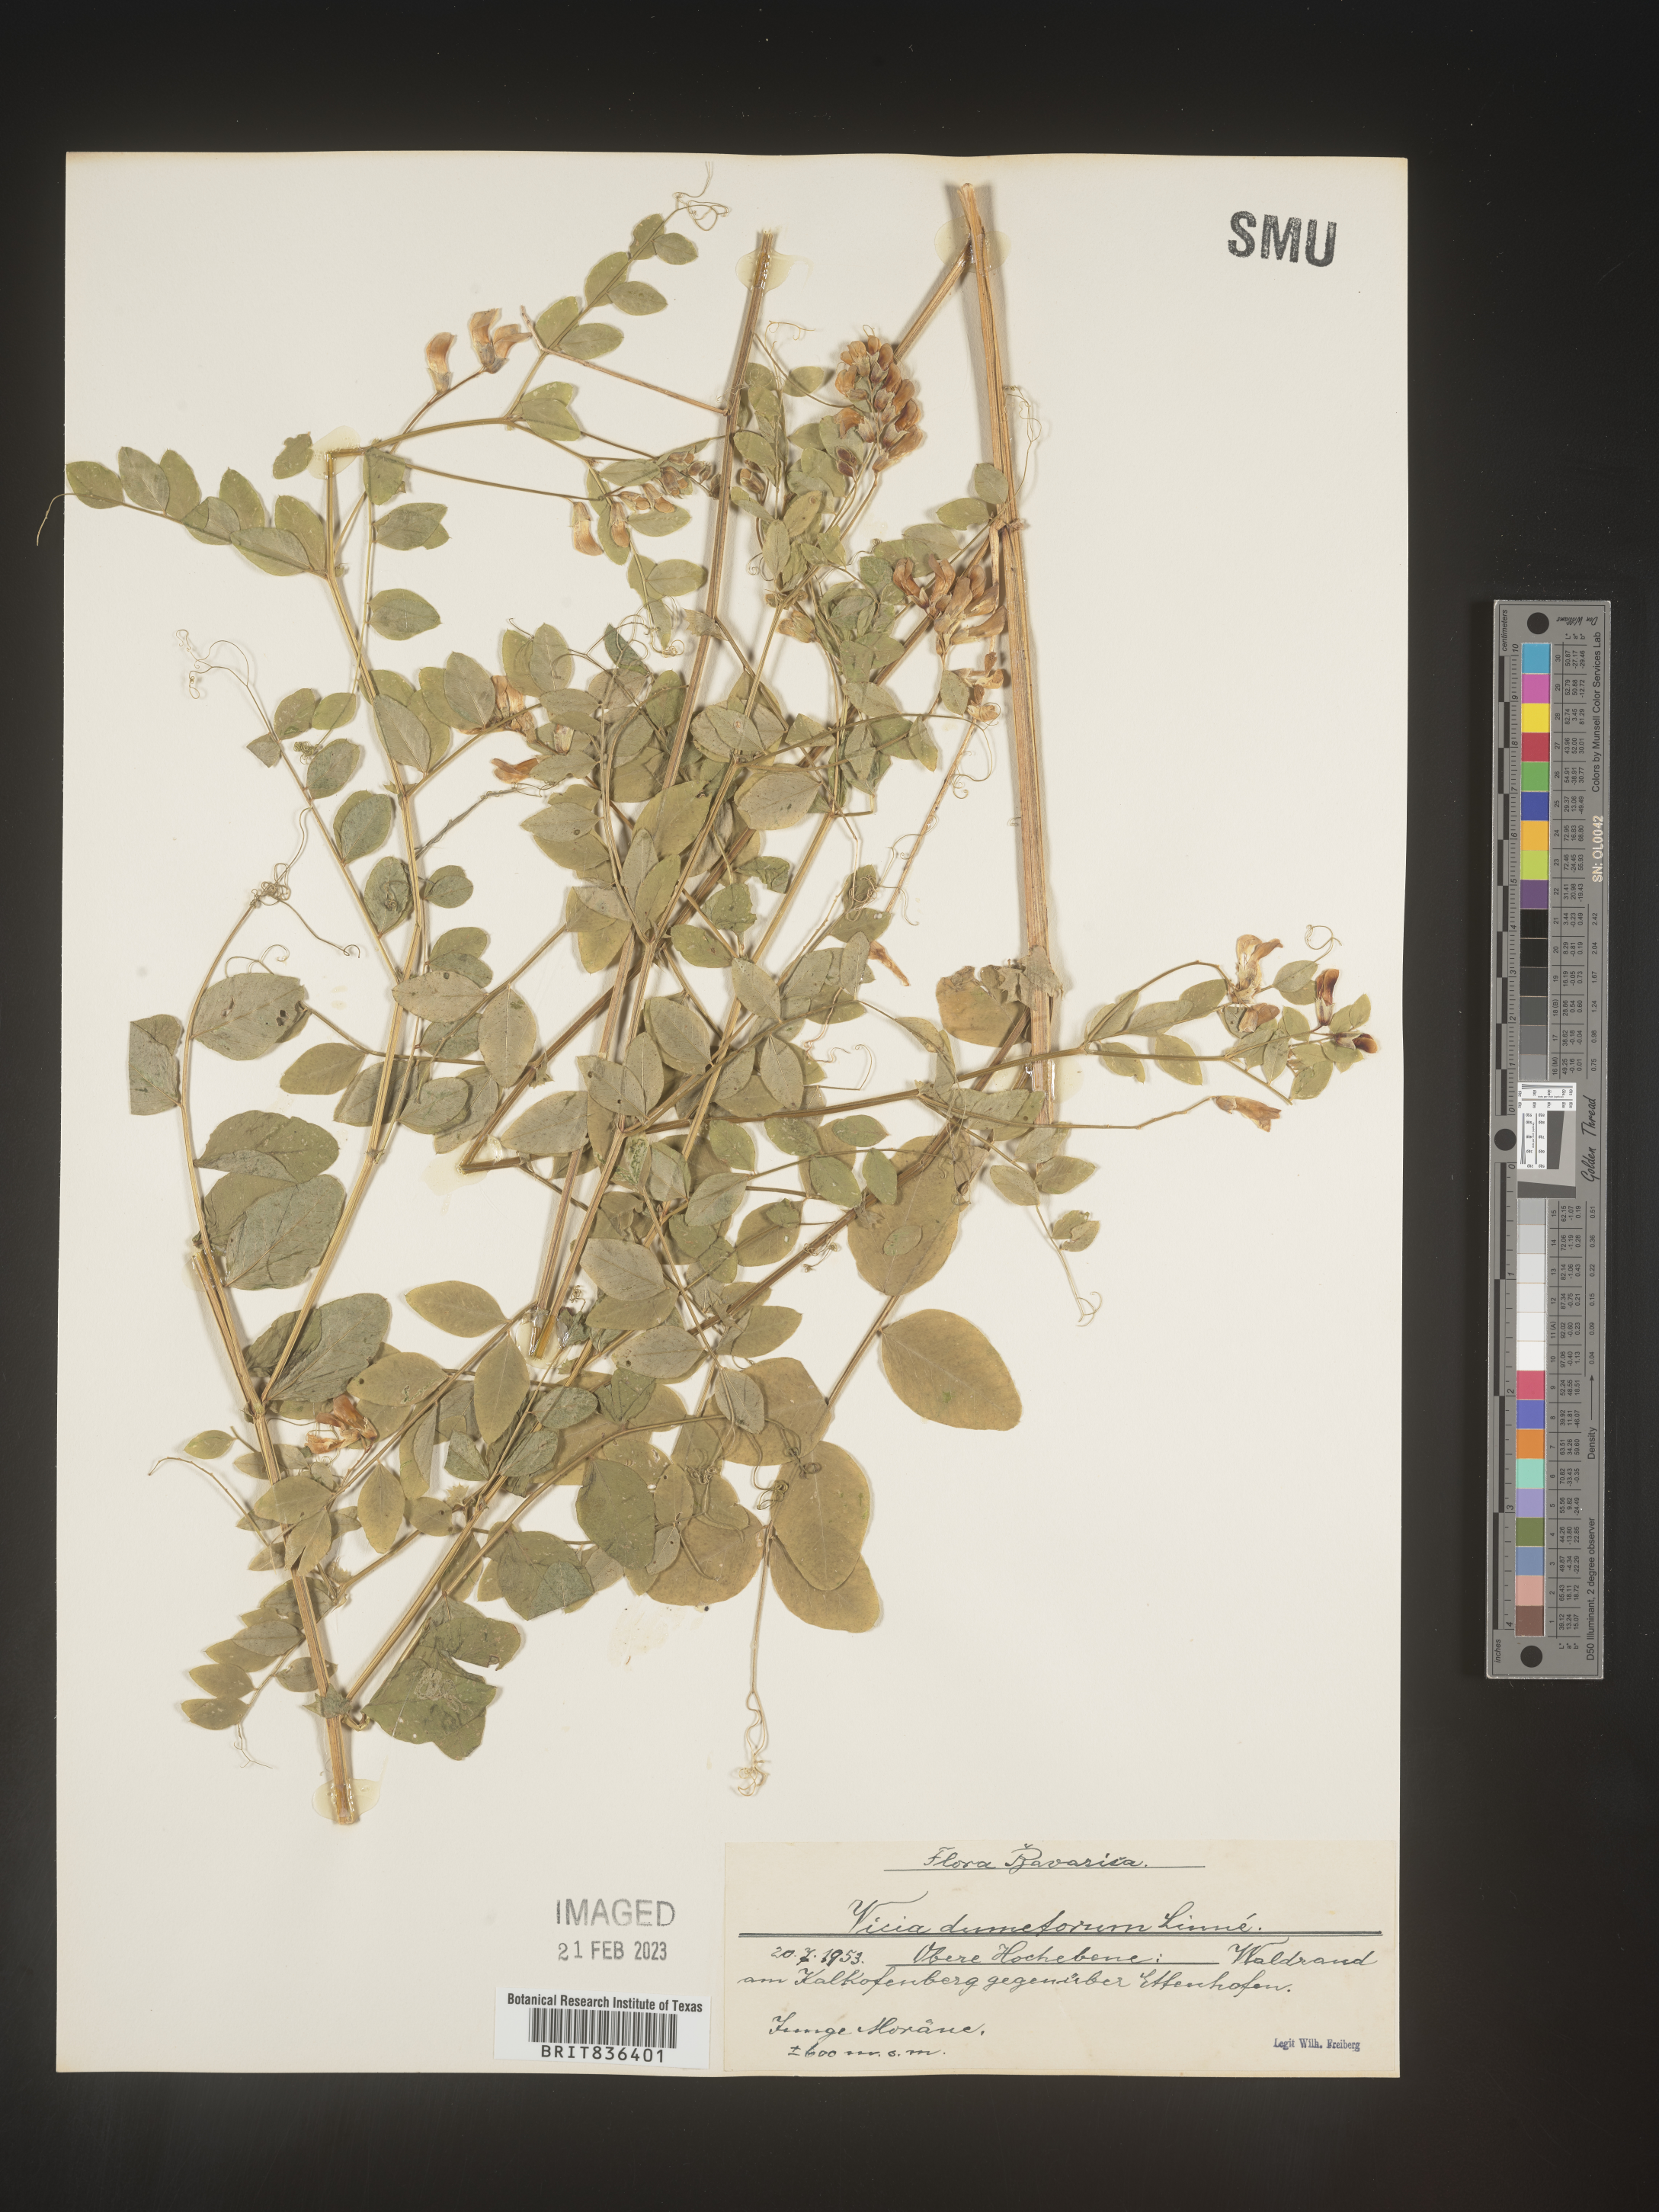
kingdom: Plantae
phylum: Tracheophyta
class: Magnoliopsida
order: Fabales
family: Fabaceae
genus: Vicia
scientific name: Vicia
